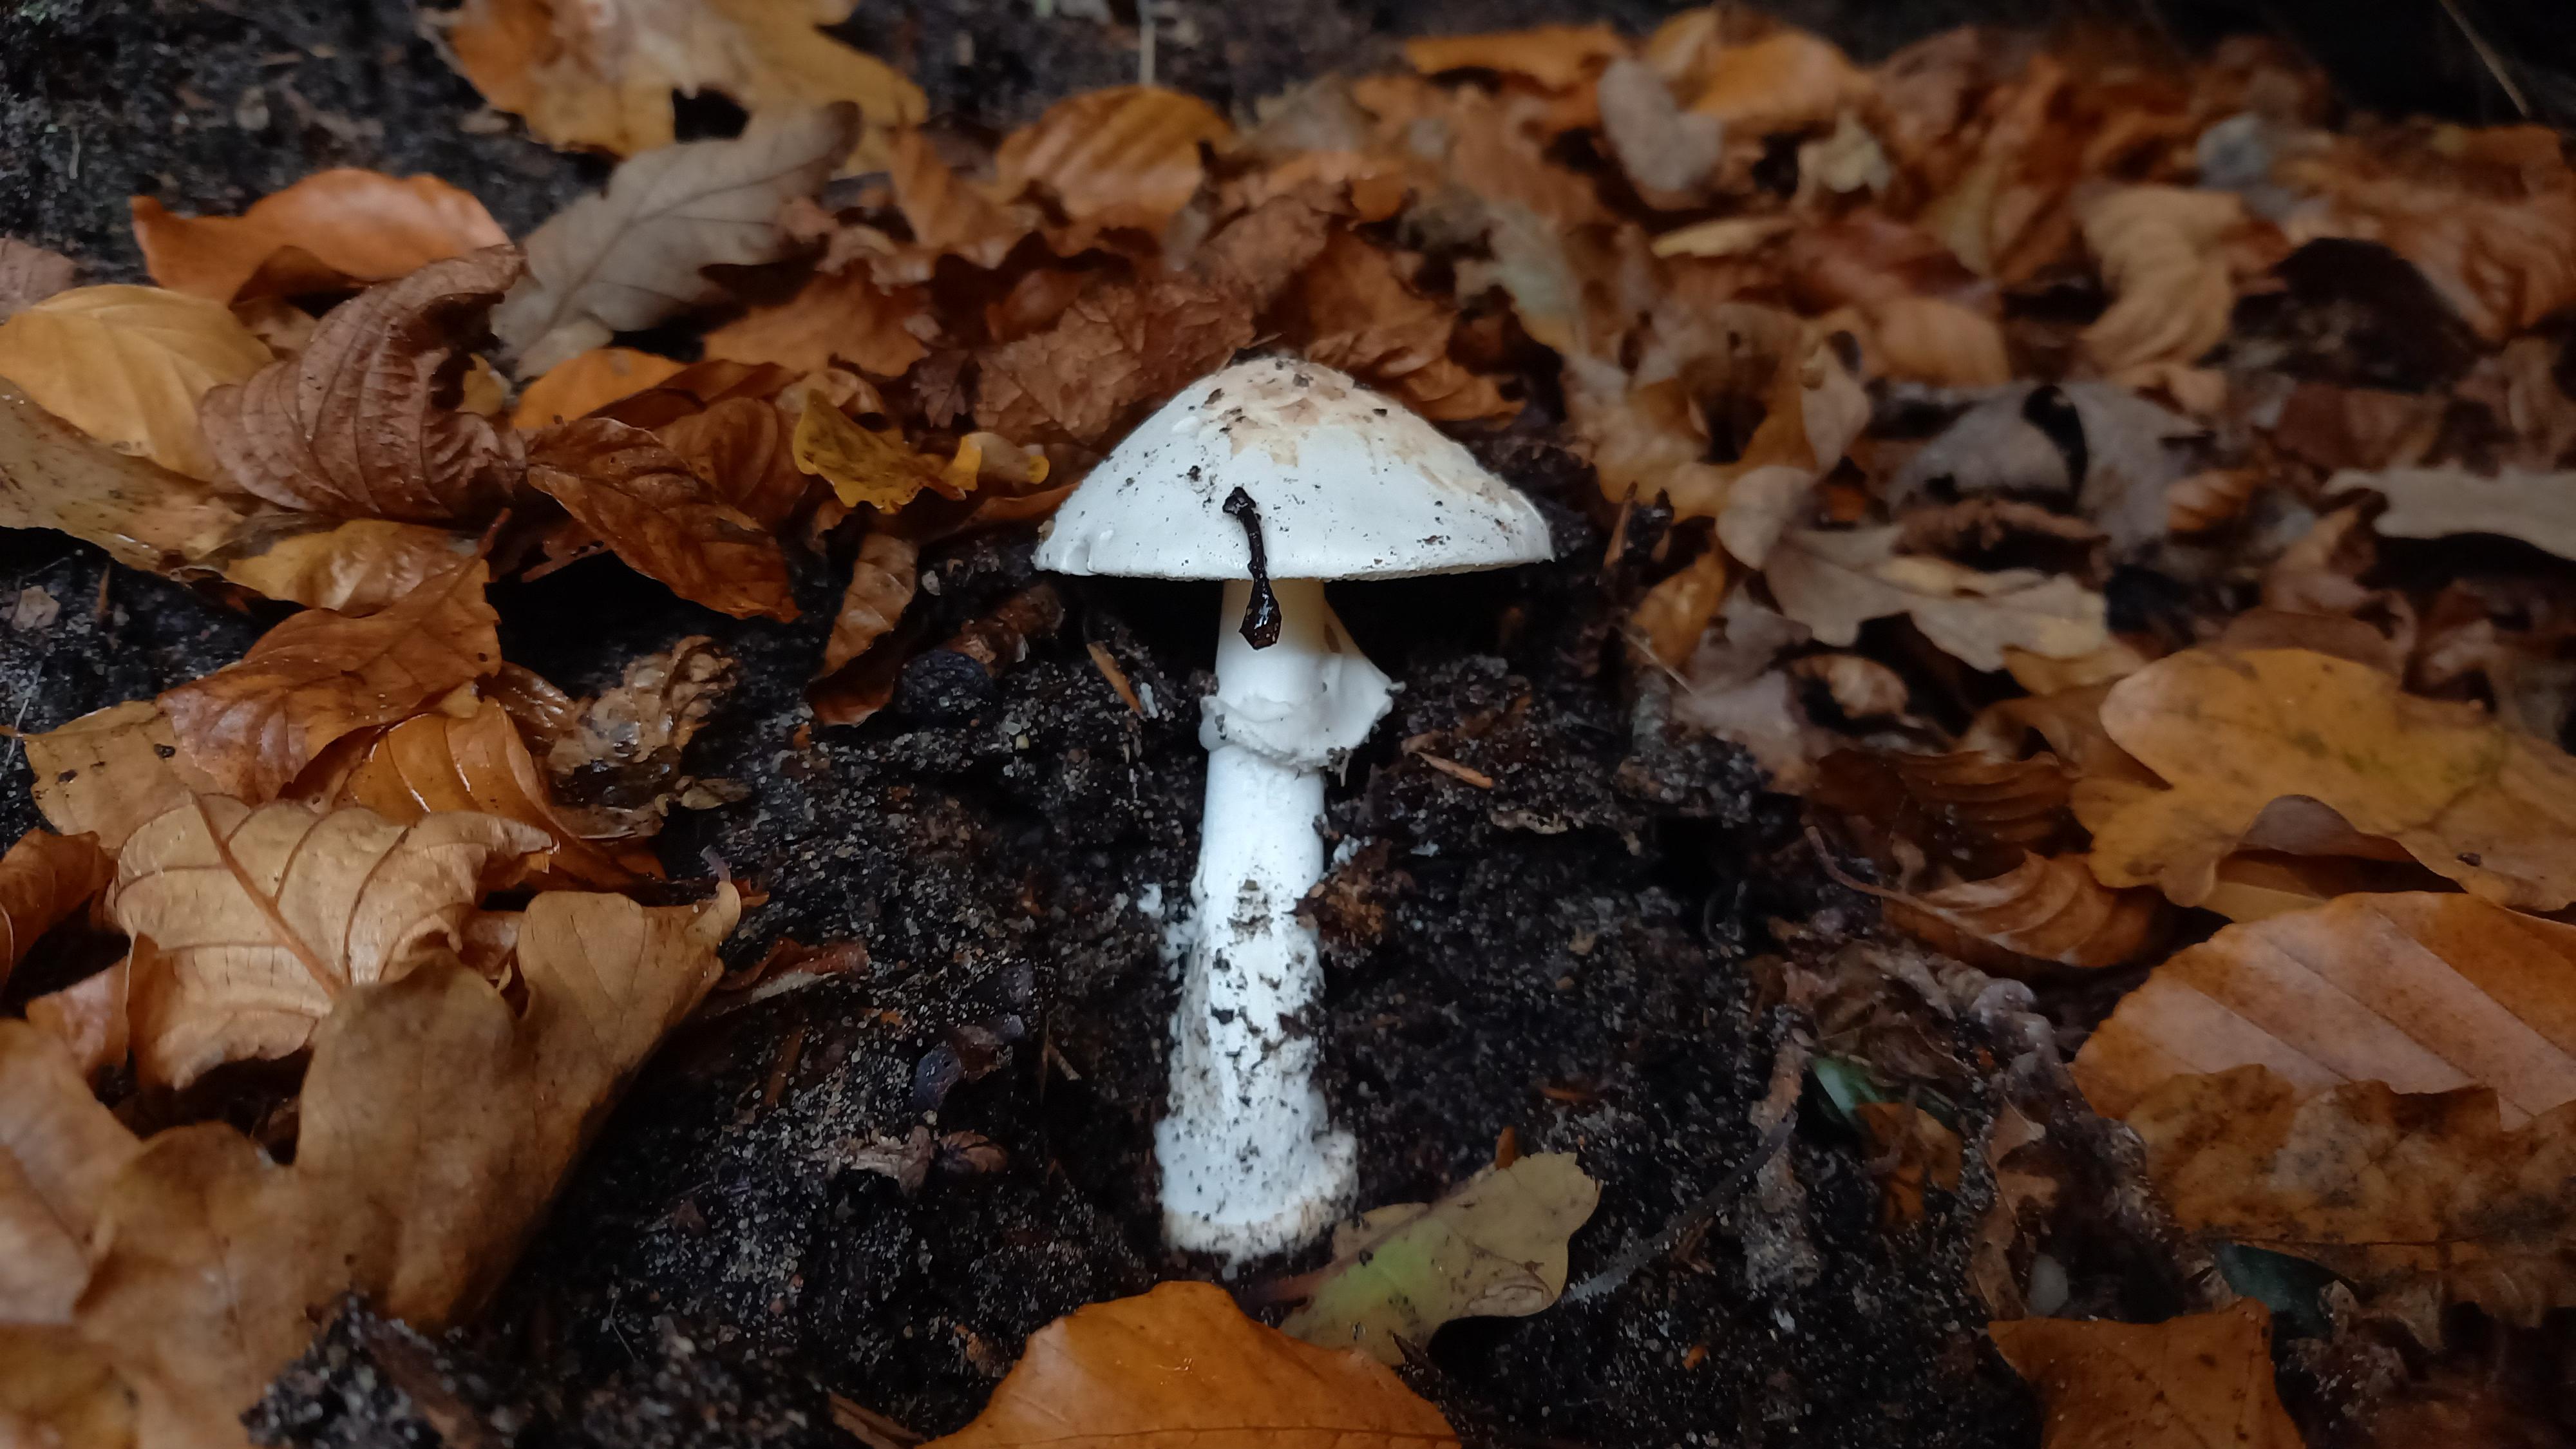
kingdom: Fungi
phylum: Basidiomycota
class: Agaricomycetes
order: Agaricales
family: Amanitaceae
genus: Amanita
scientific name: Amanita citrina
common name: kugleknoldet fluesvamp
